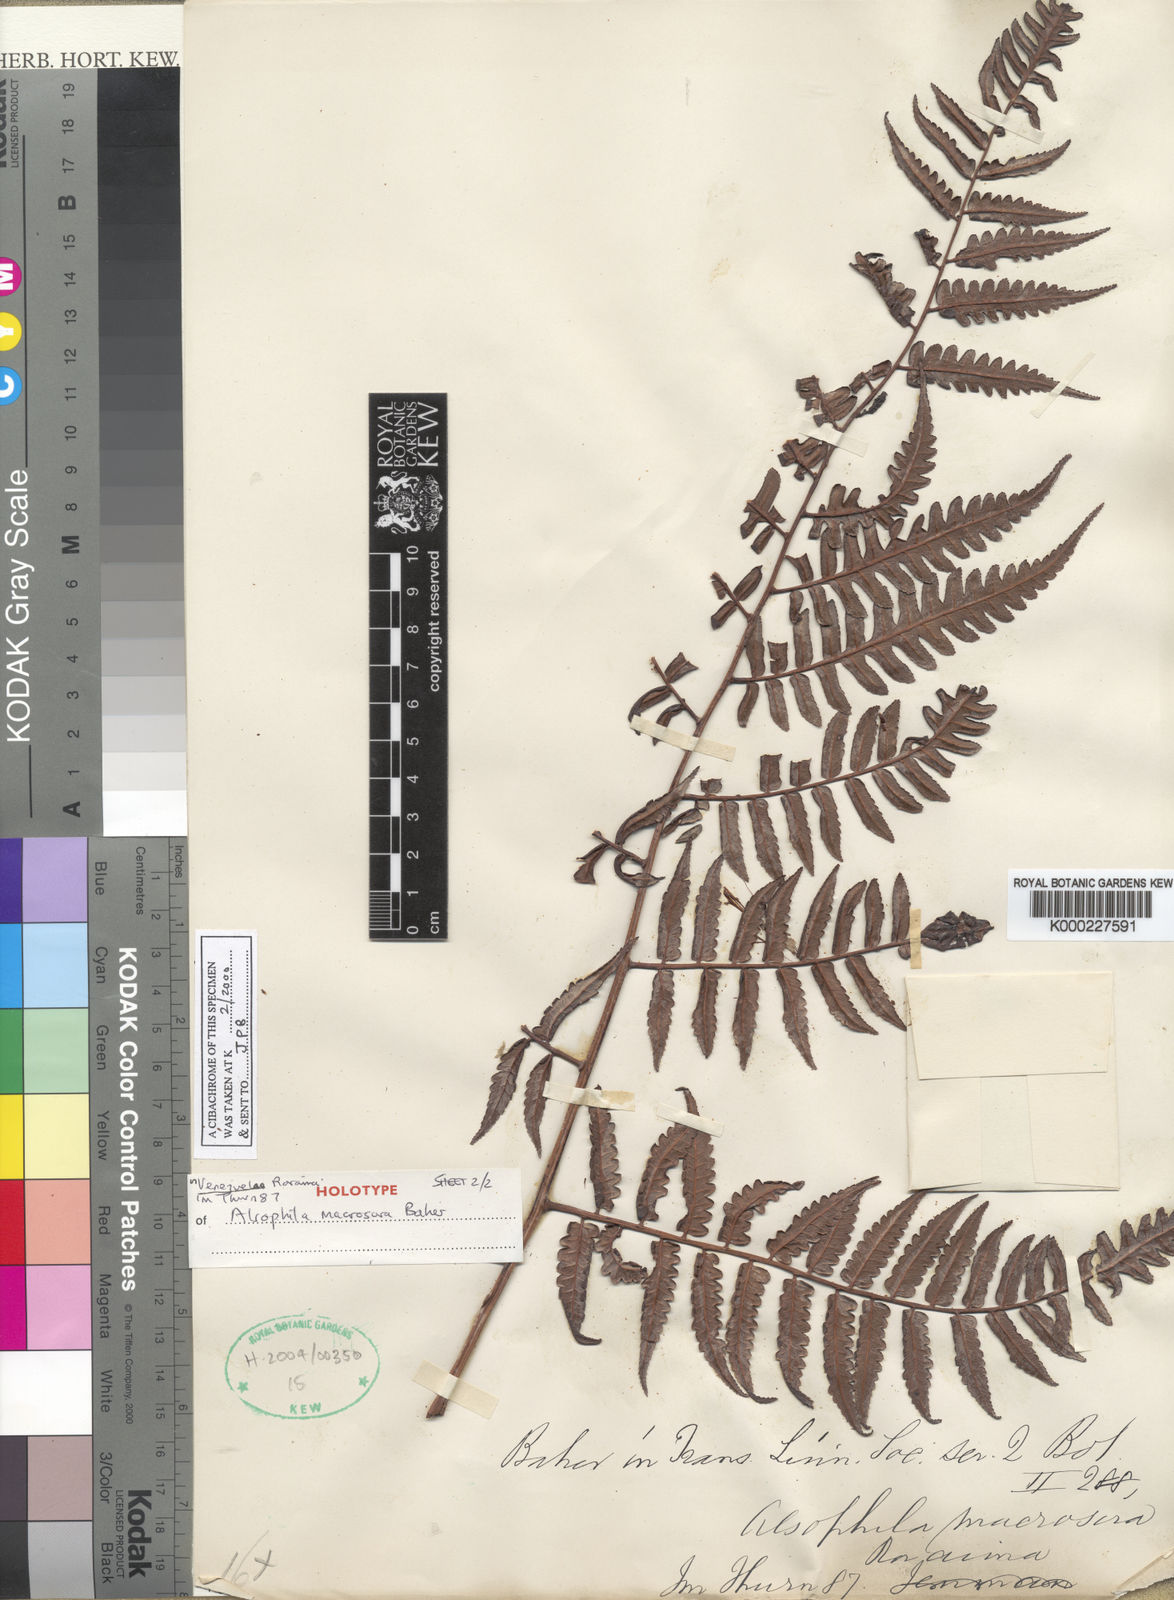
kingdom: Plantae
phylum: Tracheophyta
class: Polypodiopsida
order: Cyatheales
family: Cyatheaceae
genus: Cyathea
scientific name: Cyathea macrosora
